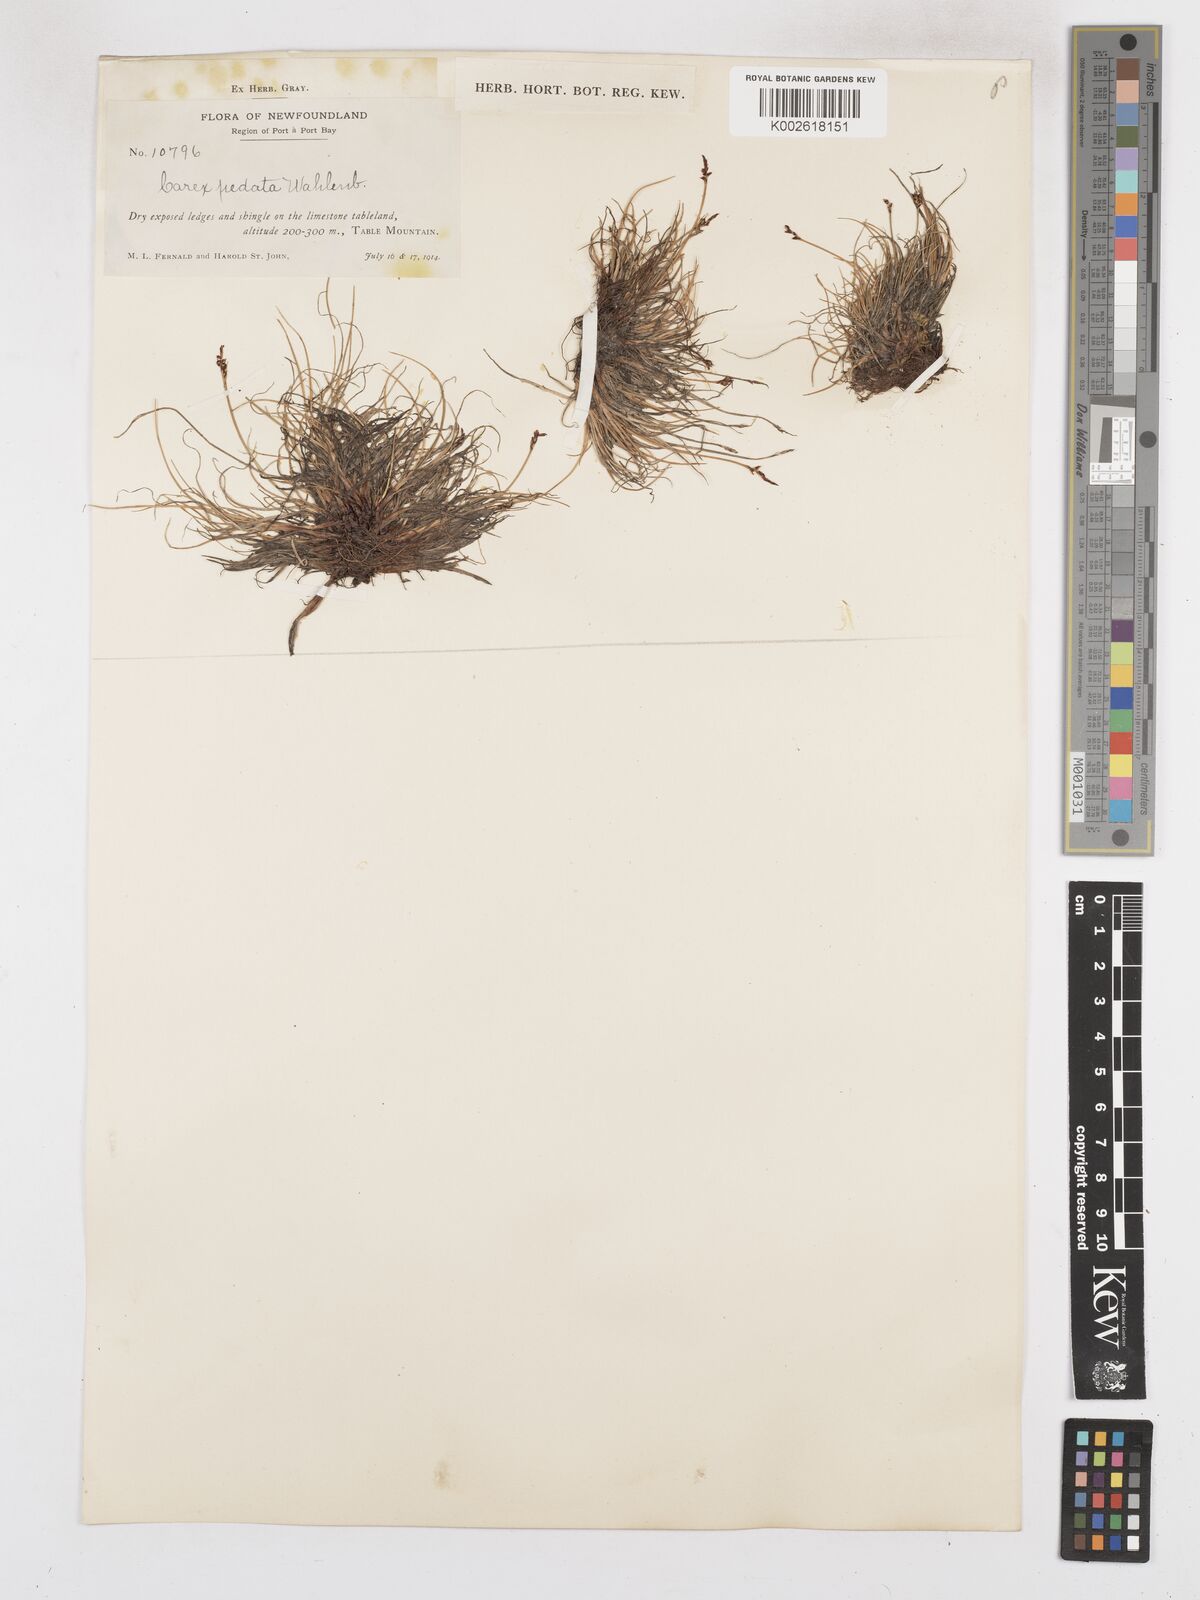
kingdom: Plantae
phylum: Tracheophyta
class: Liliopsida
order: Poales
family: Cyperaceae
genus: Carex
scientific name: Carex glacialis
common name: Newfoundland sedge
